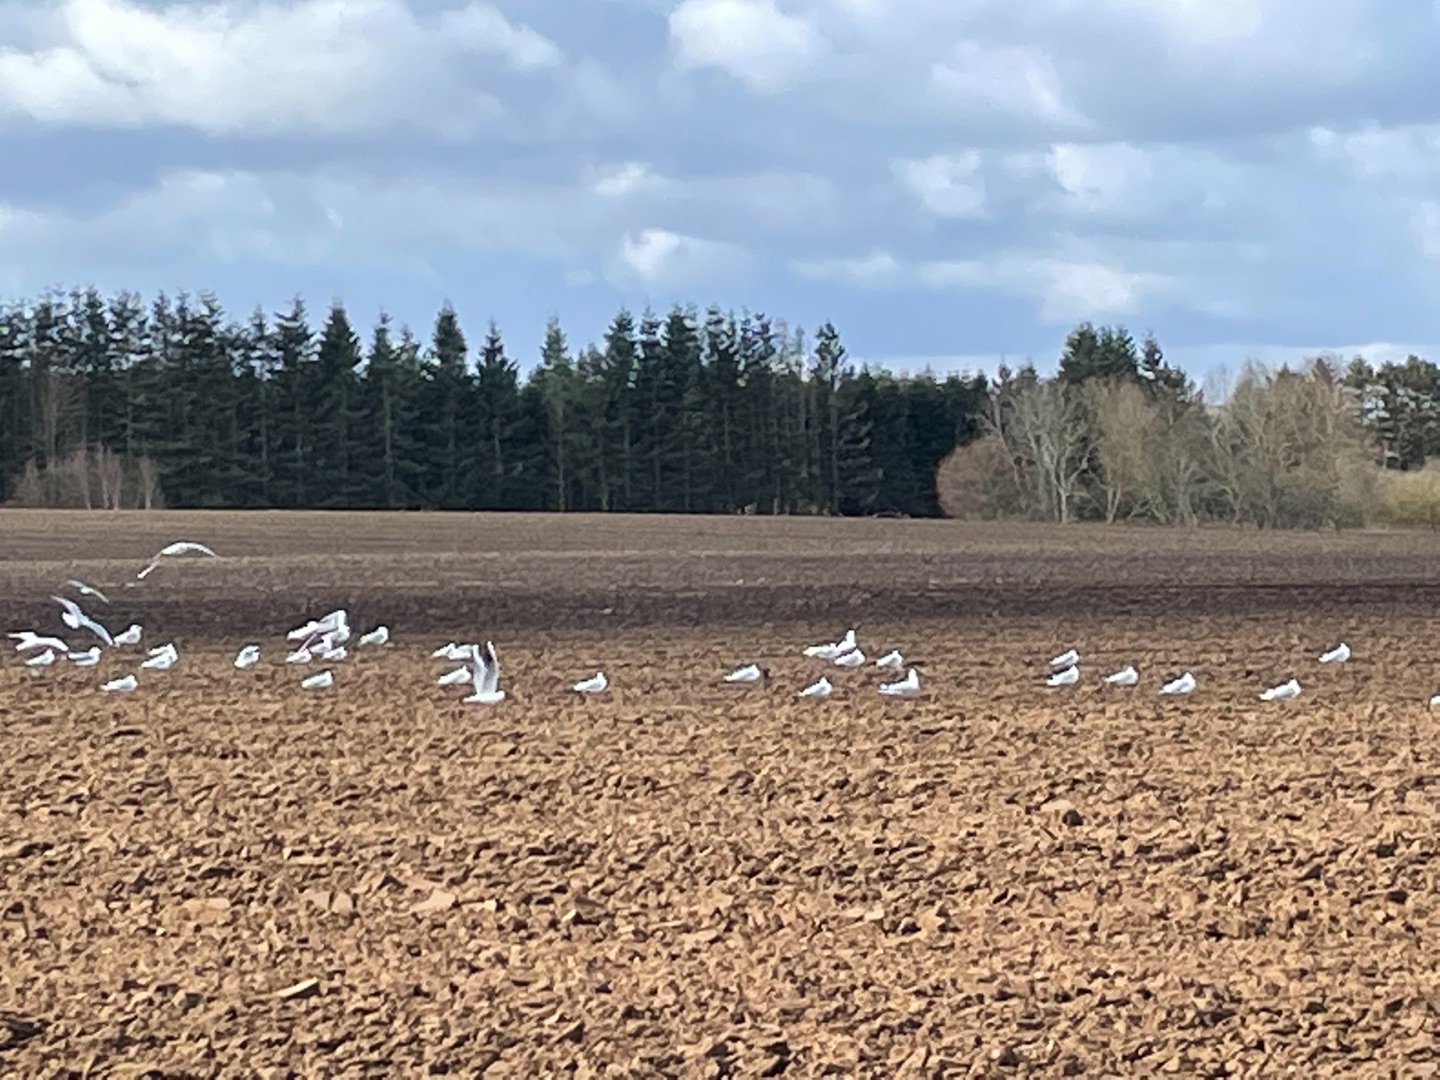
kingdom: Animalia
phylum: Chordata
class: Aves
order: Charadriiformes
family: Laridae
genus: Larus
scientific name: Larus canus
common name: Stormmåge
